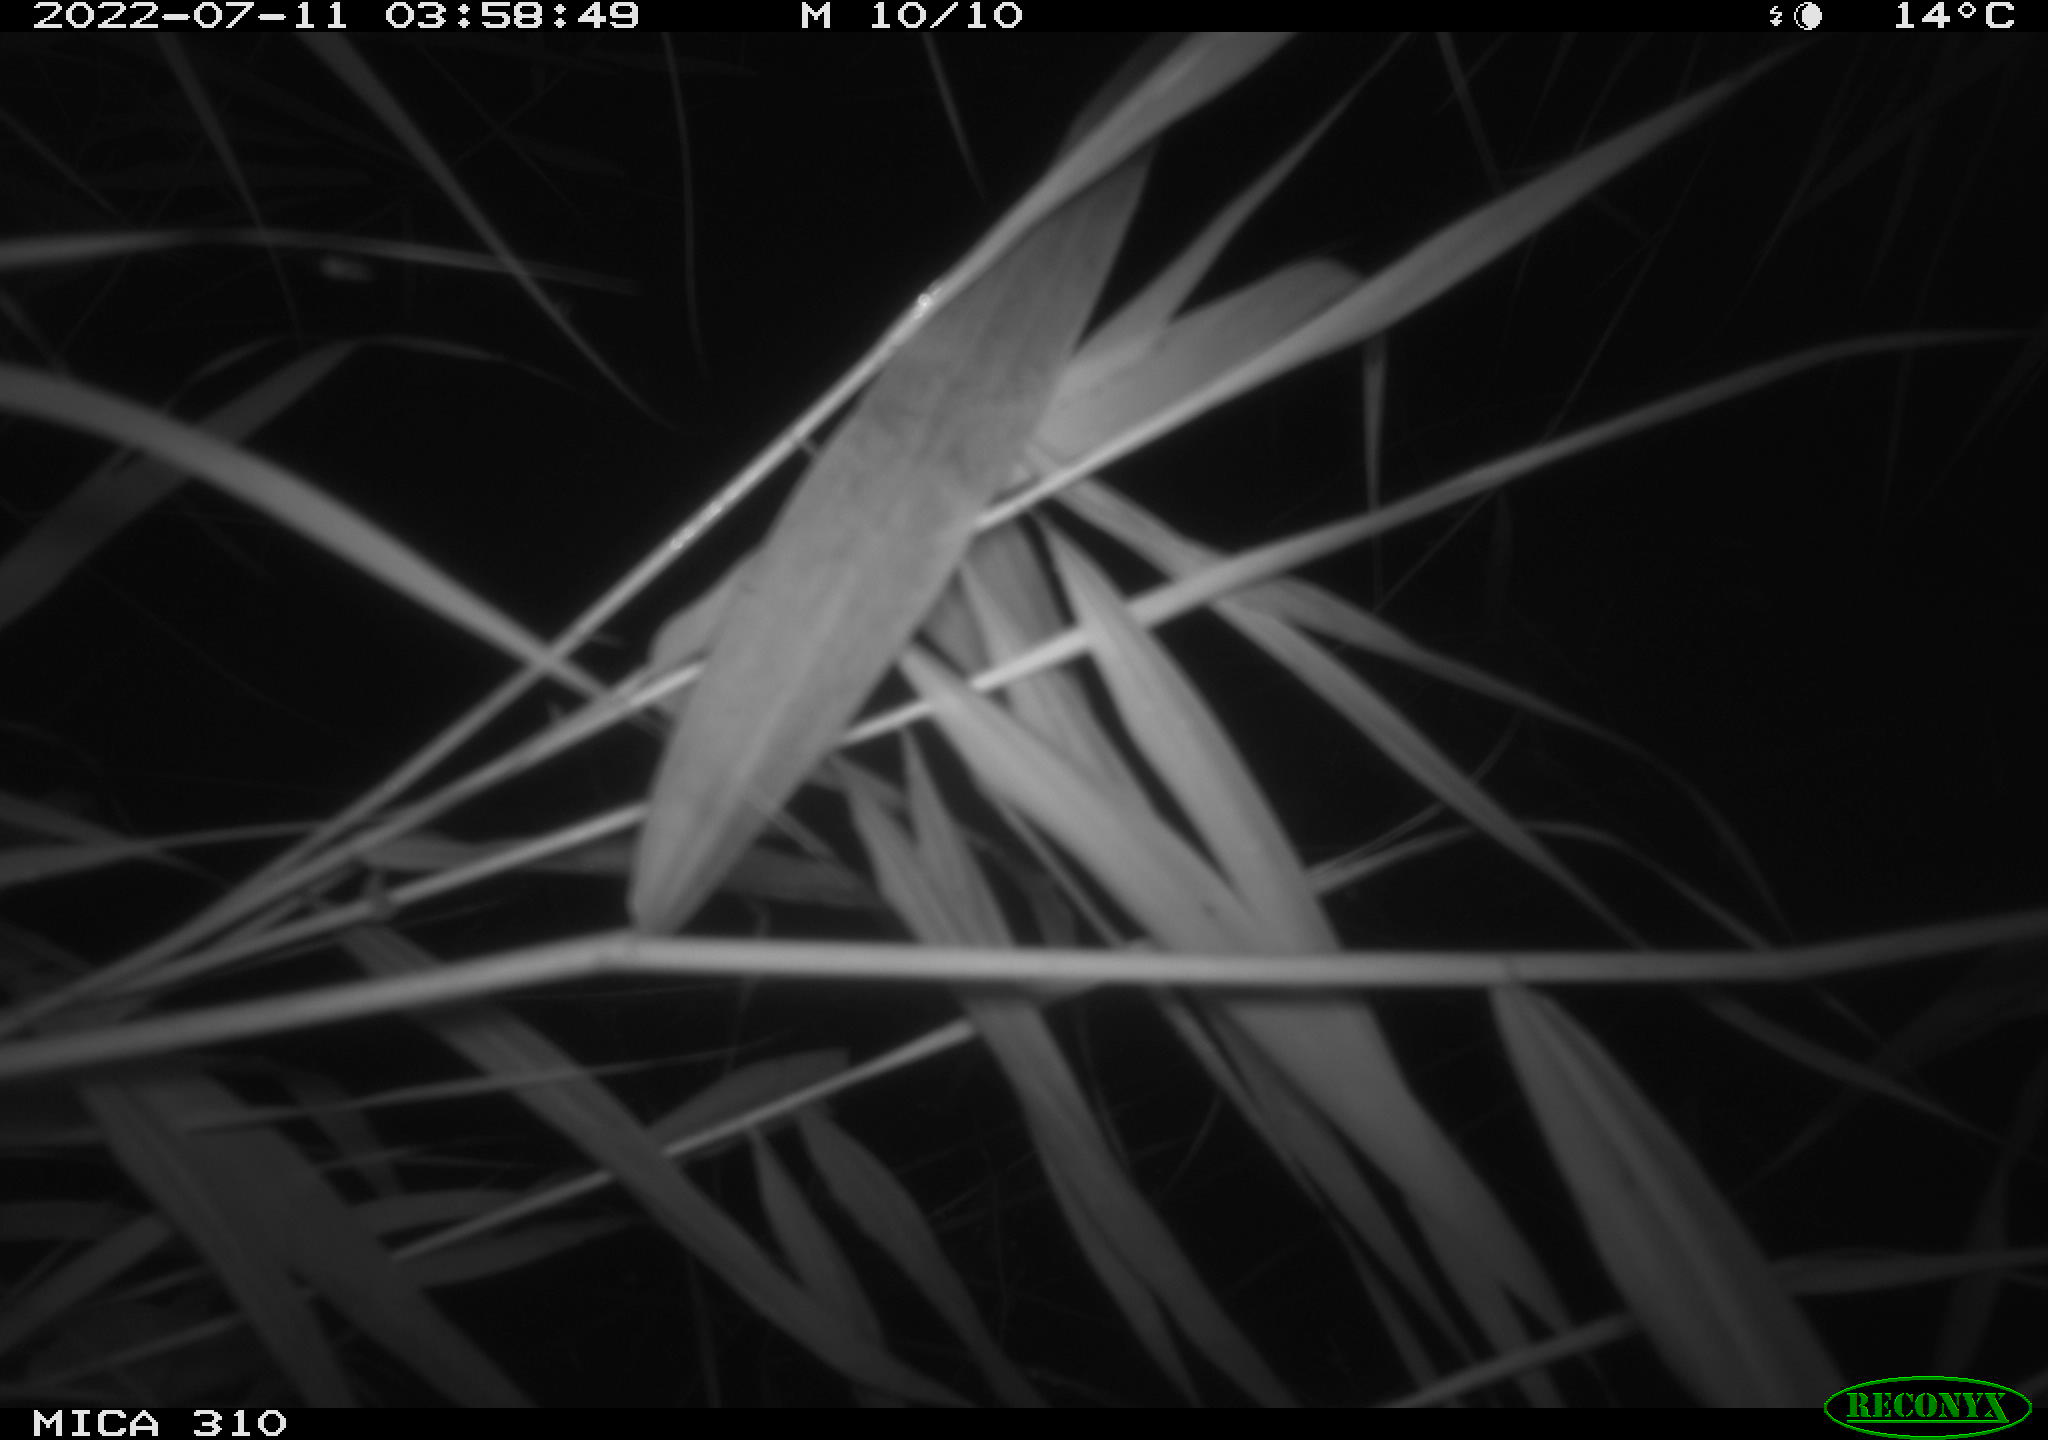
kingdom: Animalia
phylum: Chordata
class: Aves
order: Anseriformes
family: Anatidae
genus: Anas
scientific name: Anas platyrhynchos
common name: Mallard
